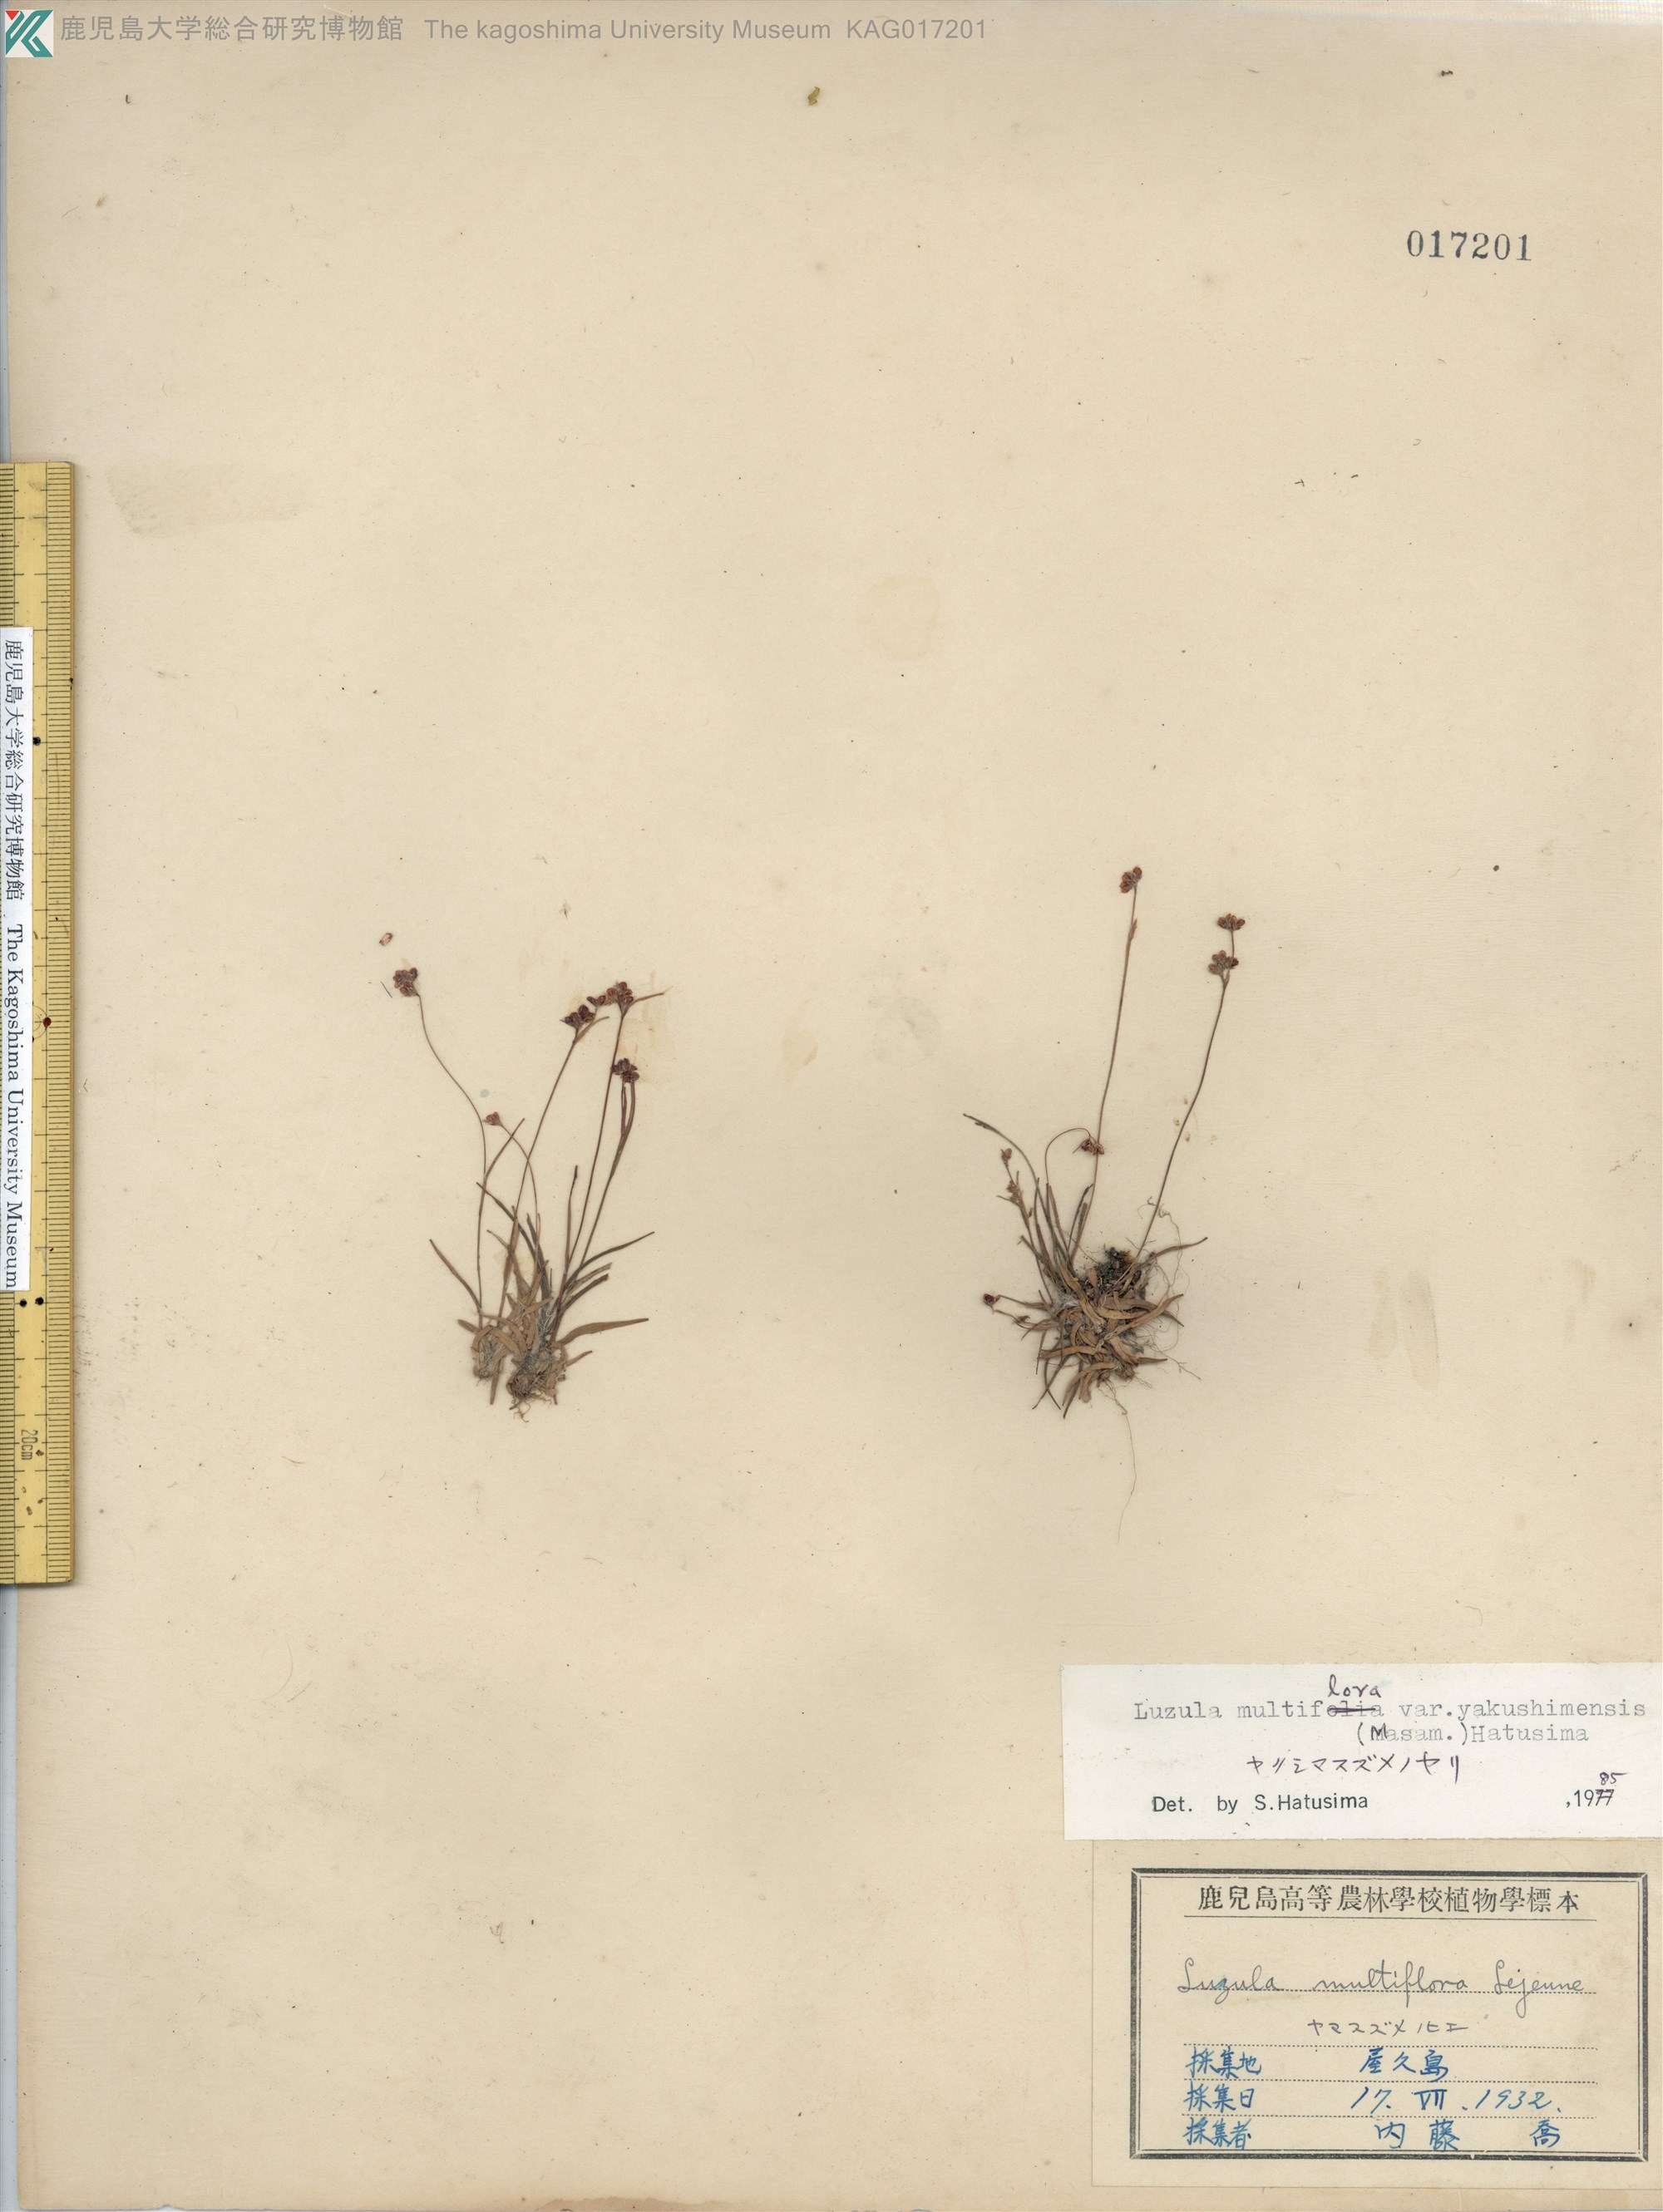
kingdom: Plantae
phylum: Tracheophyta
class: Liliopsida
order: Poales
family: Juncaceae
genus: Luzula
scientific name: Luzula multiflora
